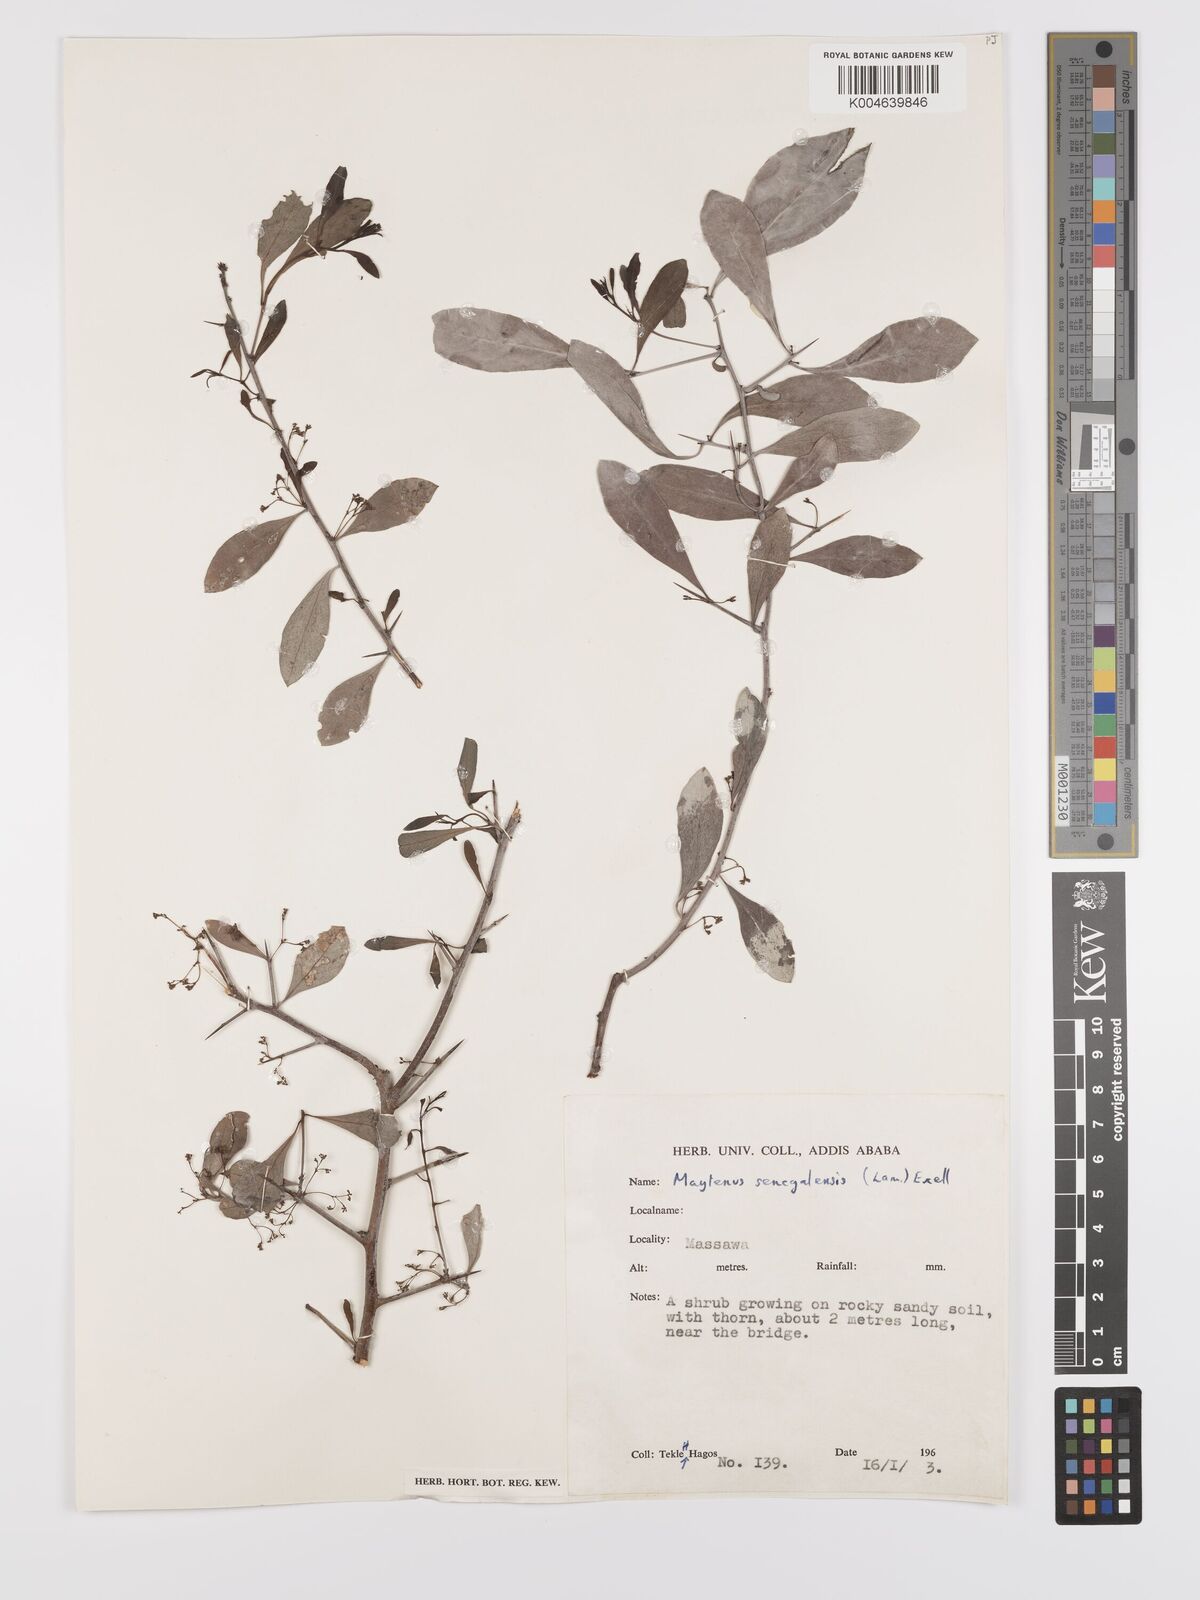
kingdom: Plantae
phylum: Tracheophyta
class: Magnoliopsida
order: Celastrales
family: Celastraceae
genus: Gymnosporia
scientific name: Gymnosporia senegalensis
